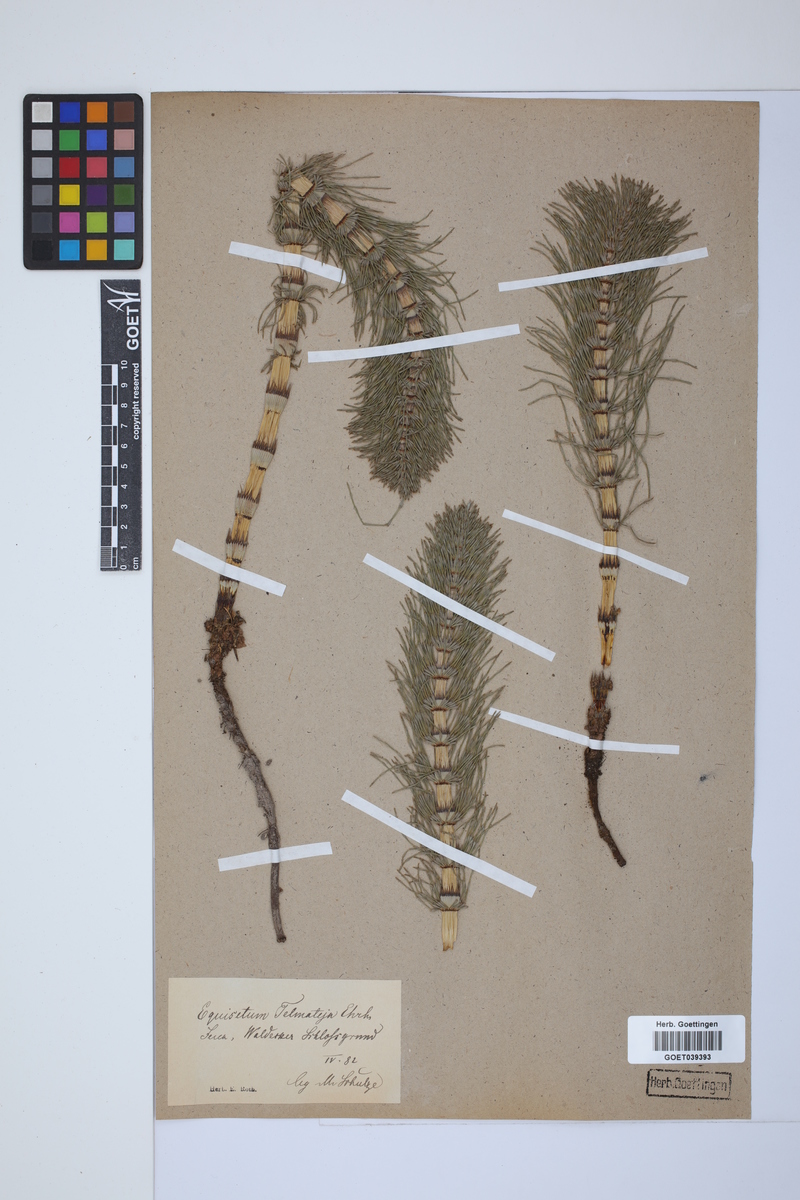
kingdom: Plantae
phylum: Tracheophyta
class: Polypodiopsida
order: Equisetales
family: Equisetaceae
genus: Equisetum
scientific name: Equisetum telmateia
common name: Great horsetail
